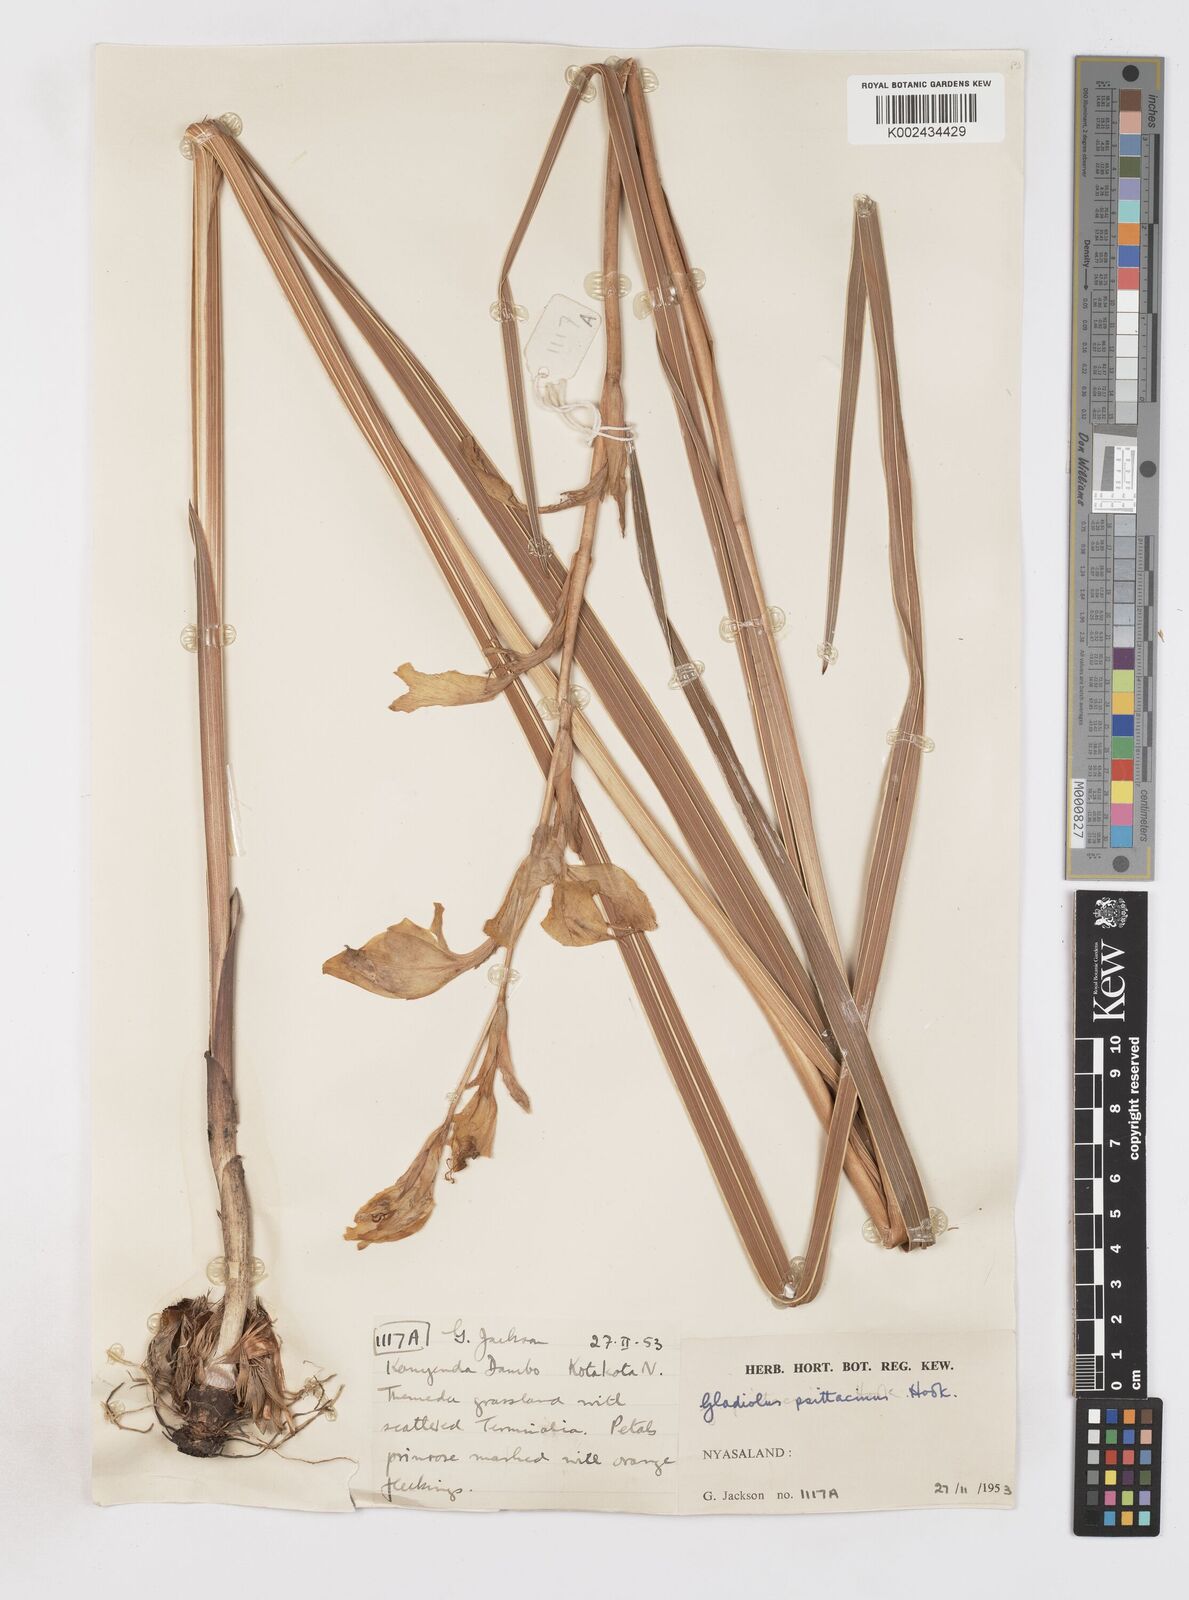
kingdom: Plantae
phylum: Tracheophyta
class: Liliopsida
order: Asparagales
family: Iridaceae
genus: Gladiolus
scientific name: Gladiolus dalenii
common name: Cornflag
